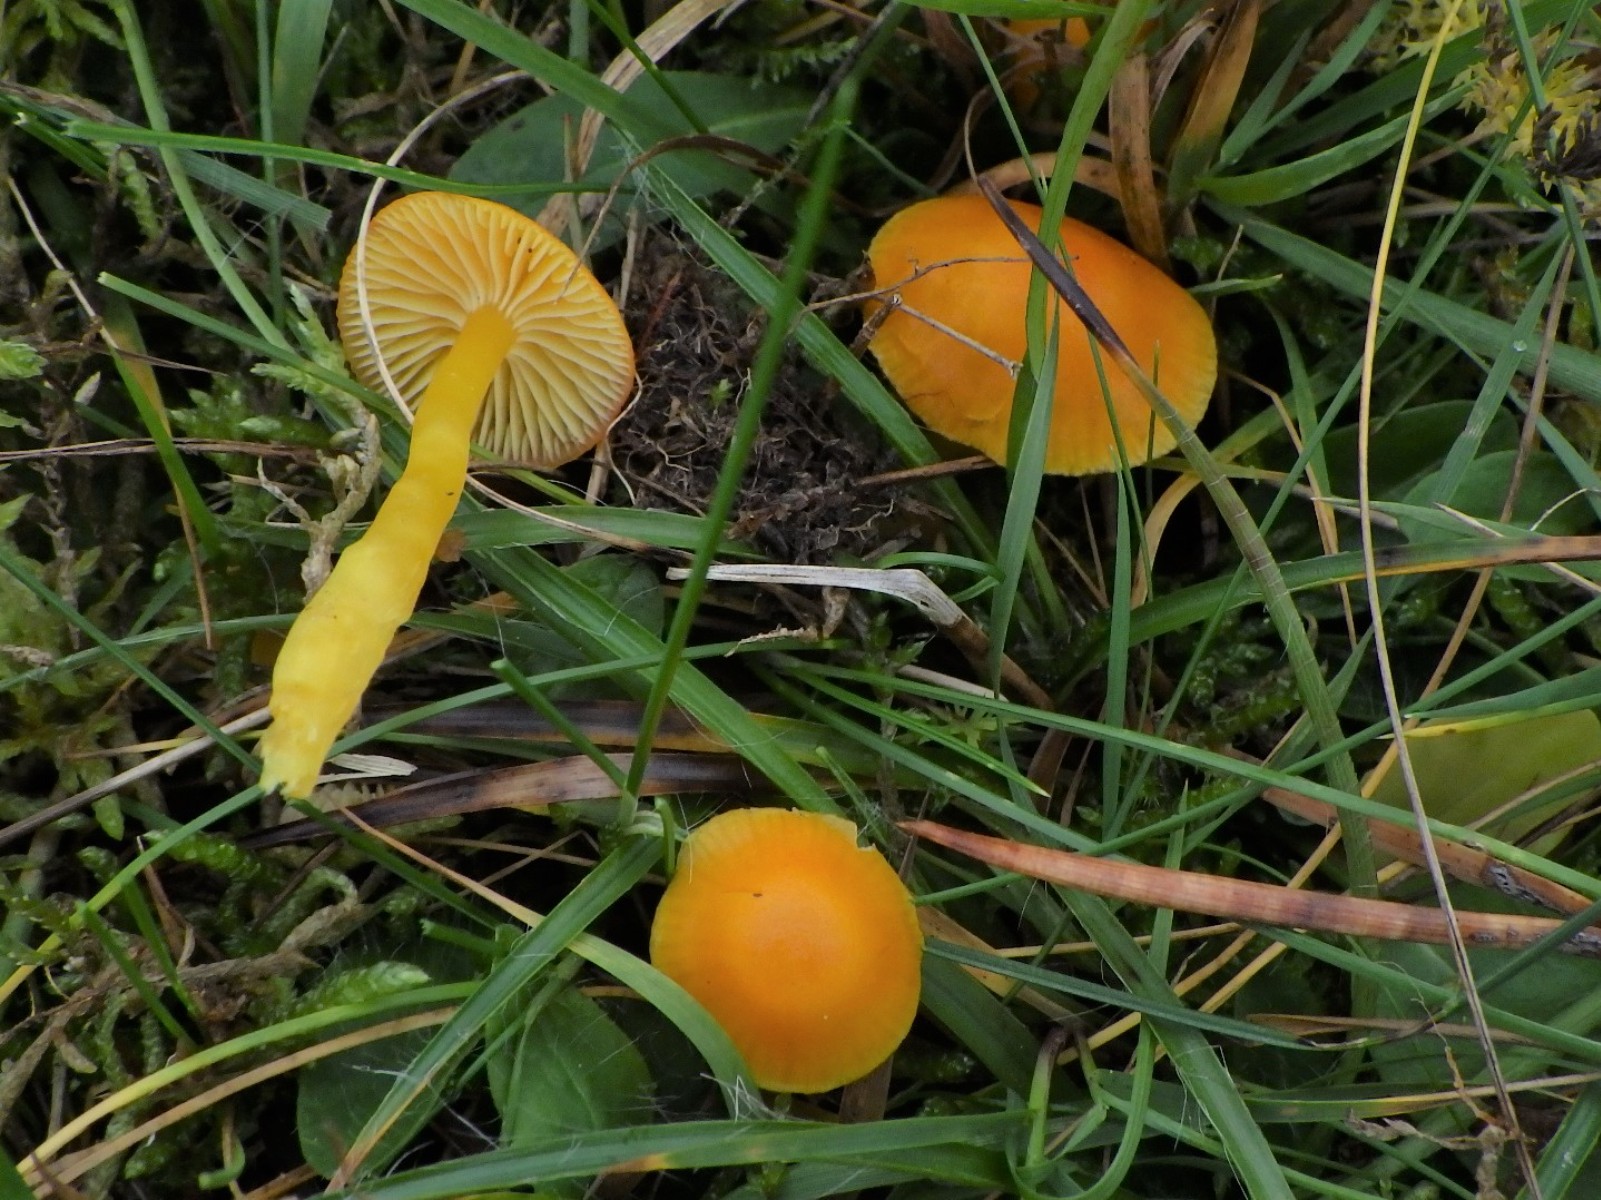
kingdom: Fungi
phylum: Basidiomycota
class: Agaricomycetes
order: Agaricales
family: Hygrophoraceae
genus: Hygrocybe
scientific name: Hygrocybe ceracea
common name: voksgul vokshat
